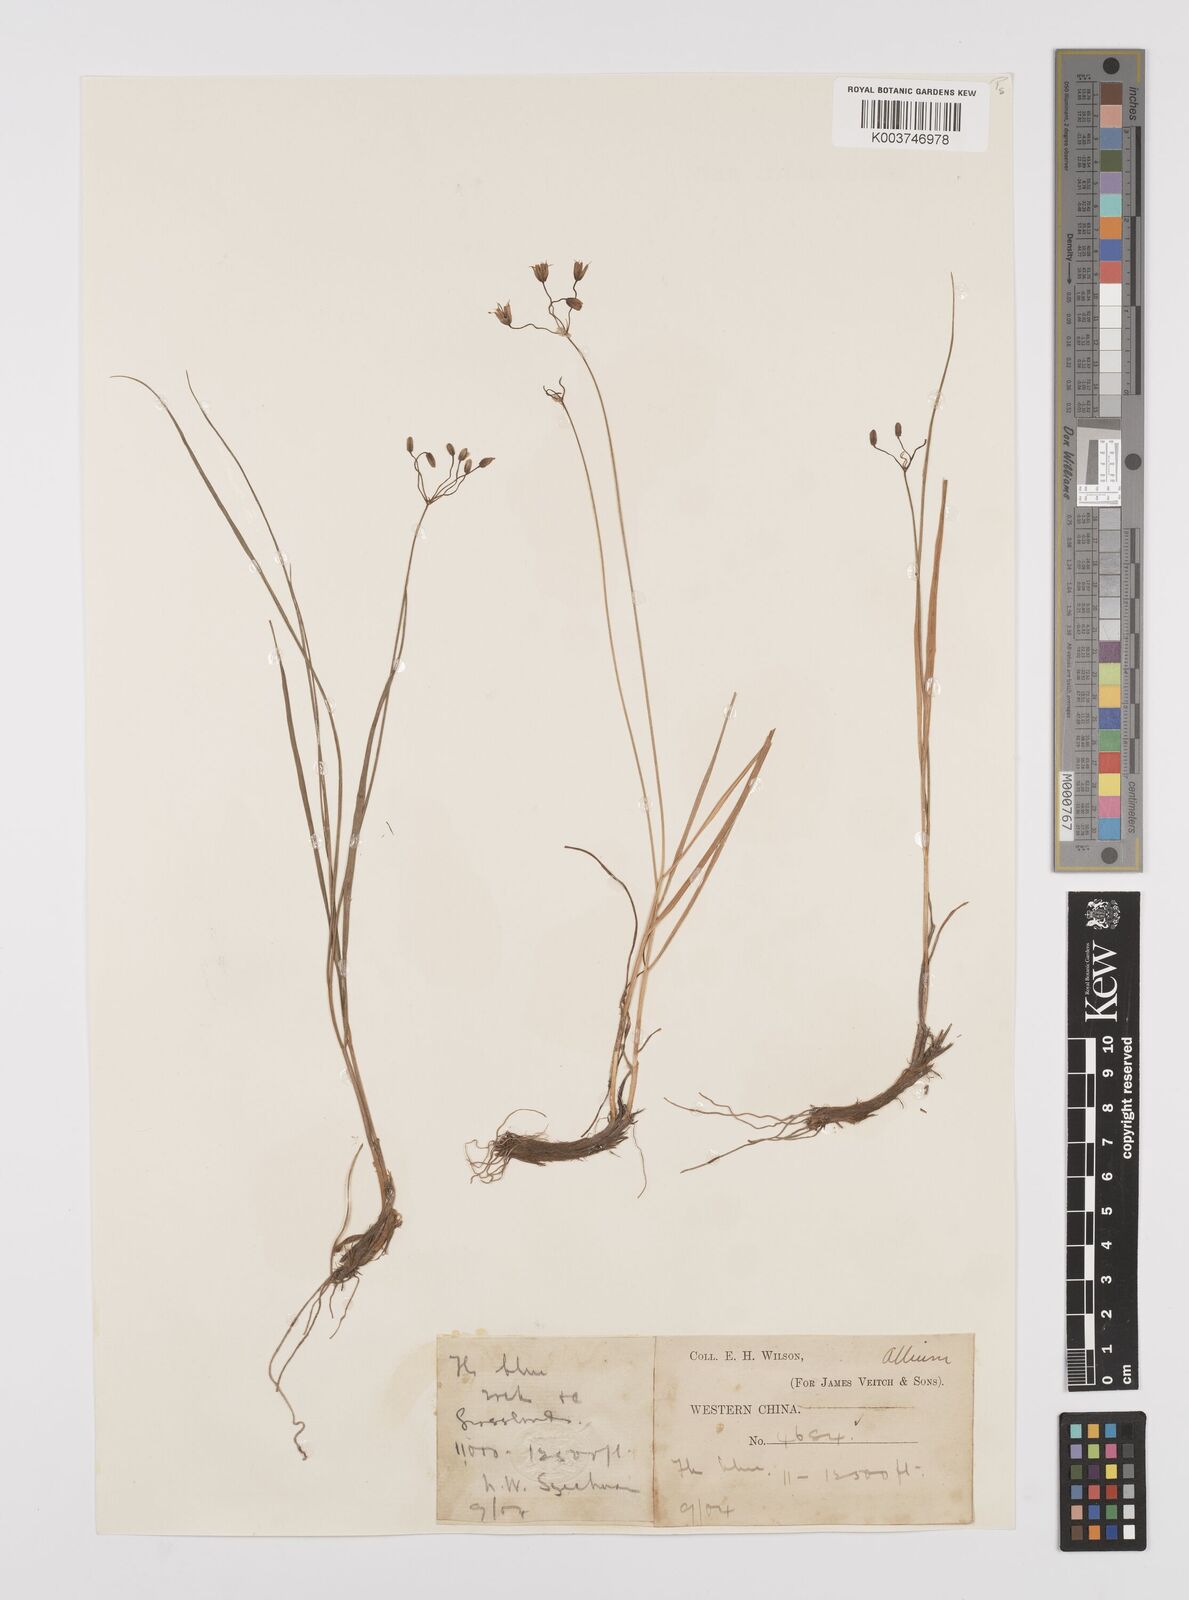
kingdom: Plantae
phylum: Tracheophyta
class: Liliopsida
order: Asparagales
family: Amaryllidaceae
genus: Allium
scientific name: Allium
